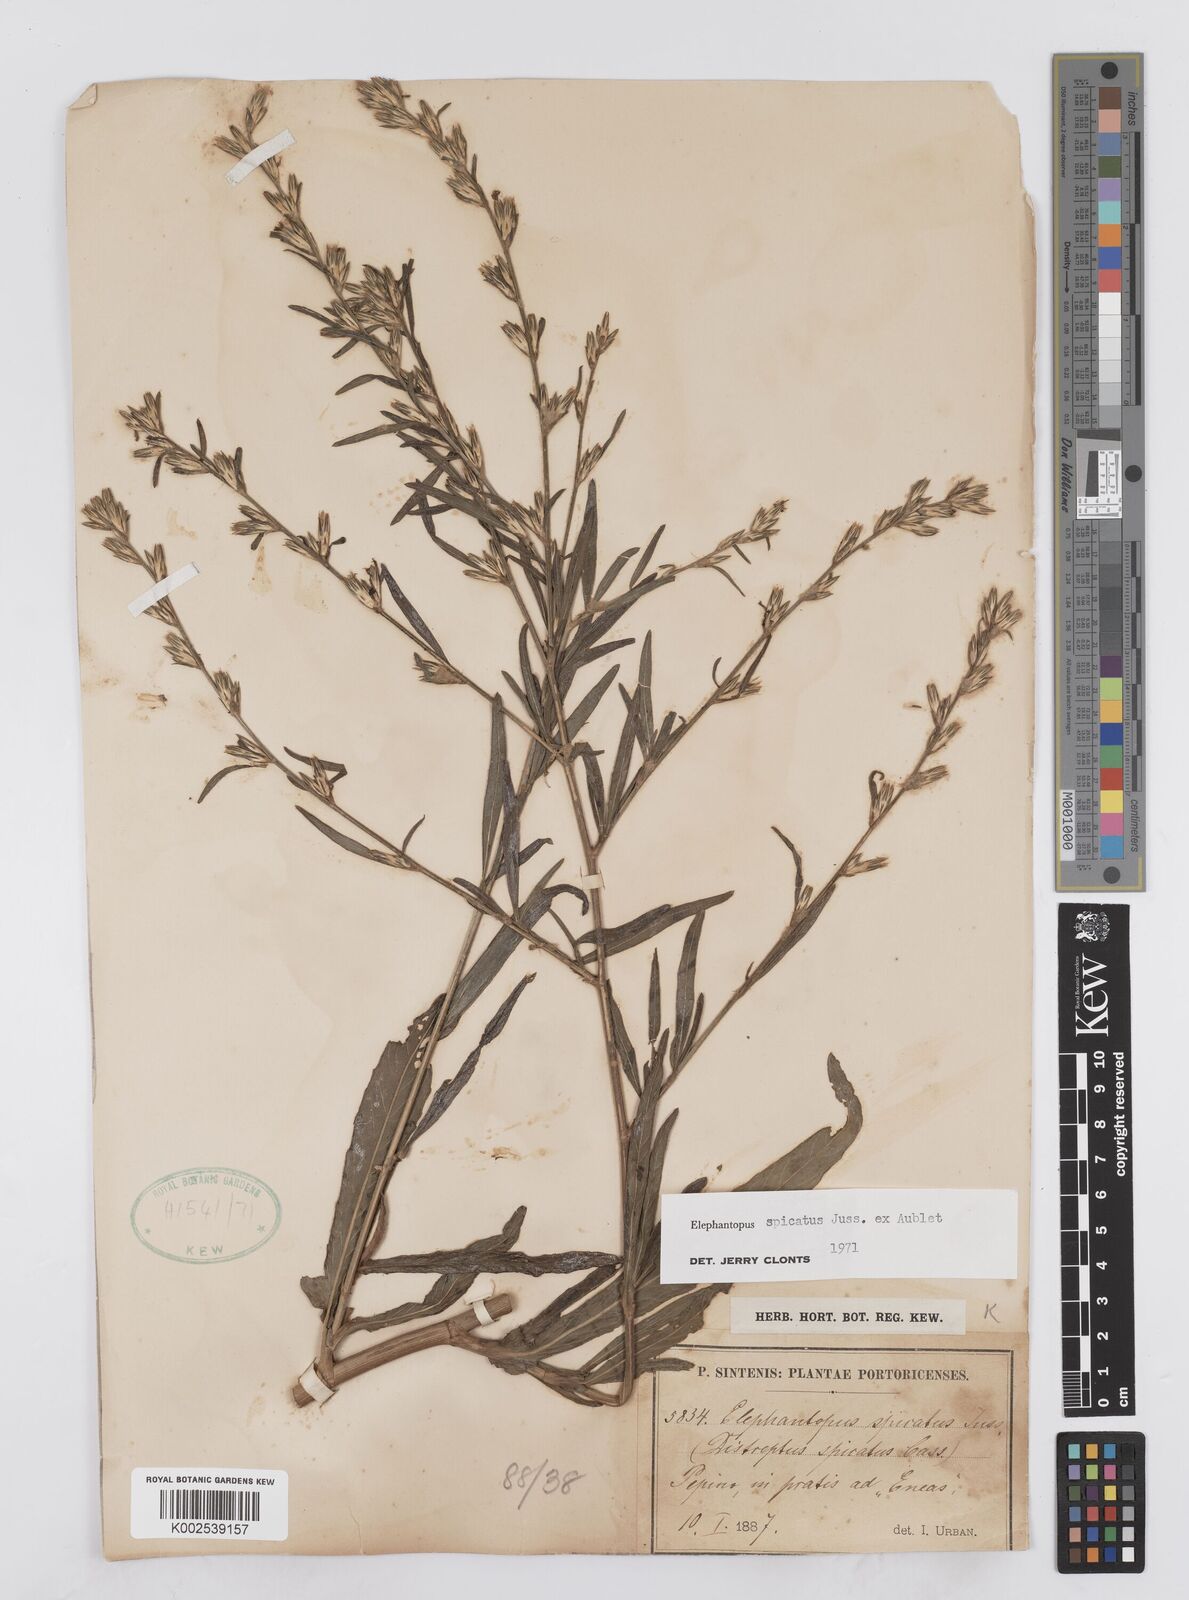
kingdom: Plantae
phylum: Tracheophyta
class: Magnoliopsida
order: Asterales
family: Asteraceae
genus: Pseudelephantopus
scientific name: Pseudelephantopus spicatus
